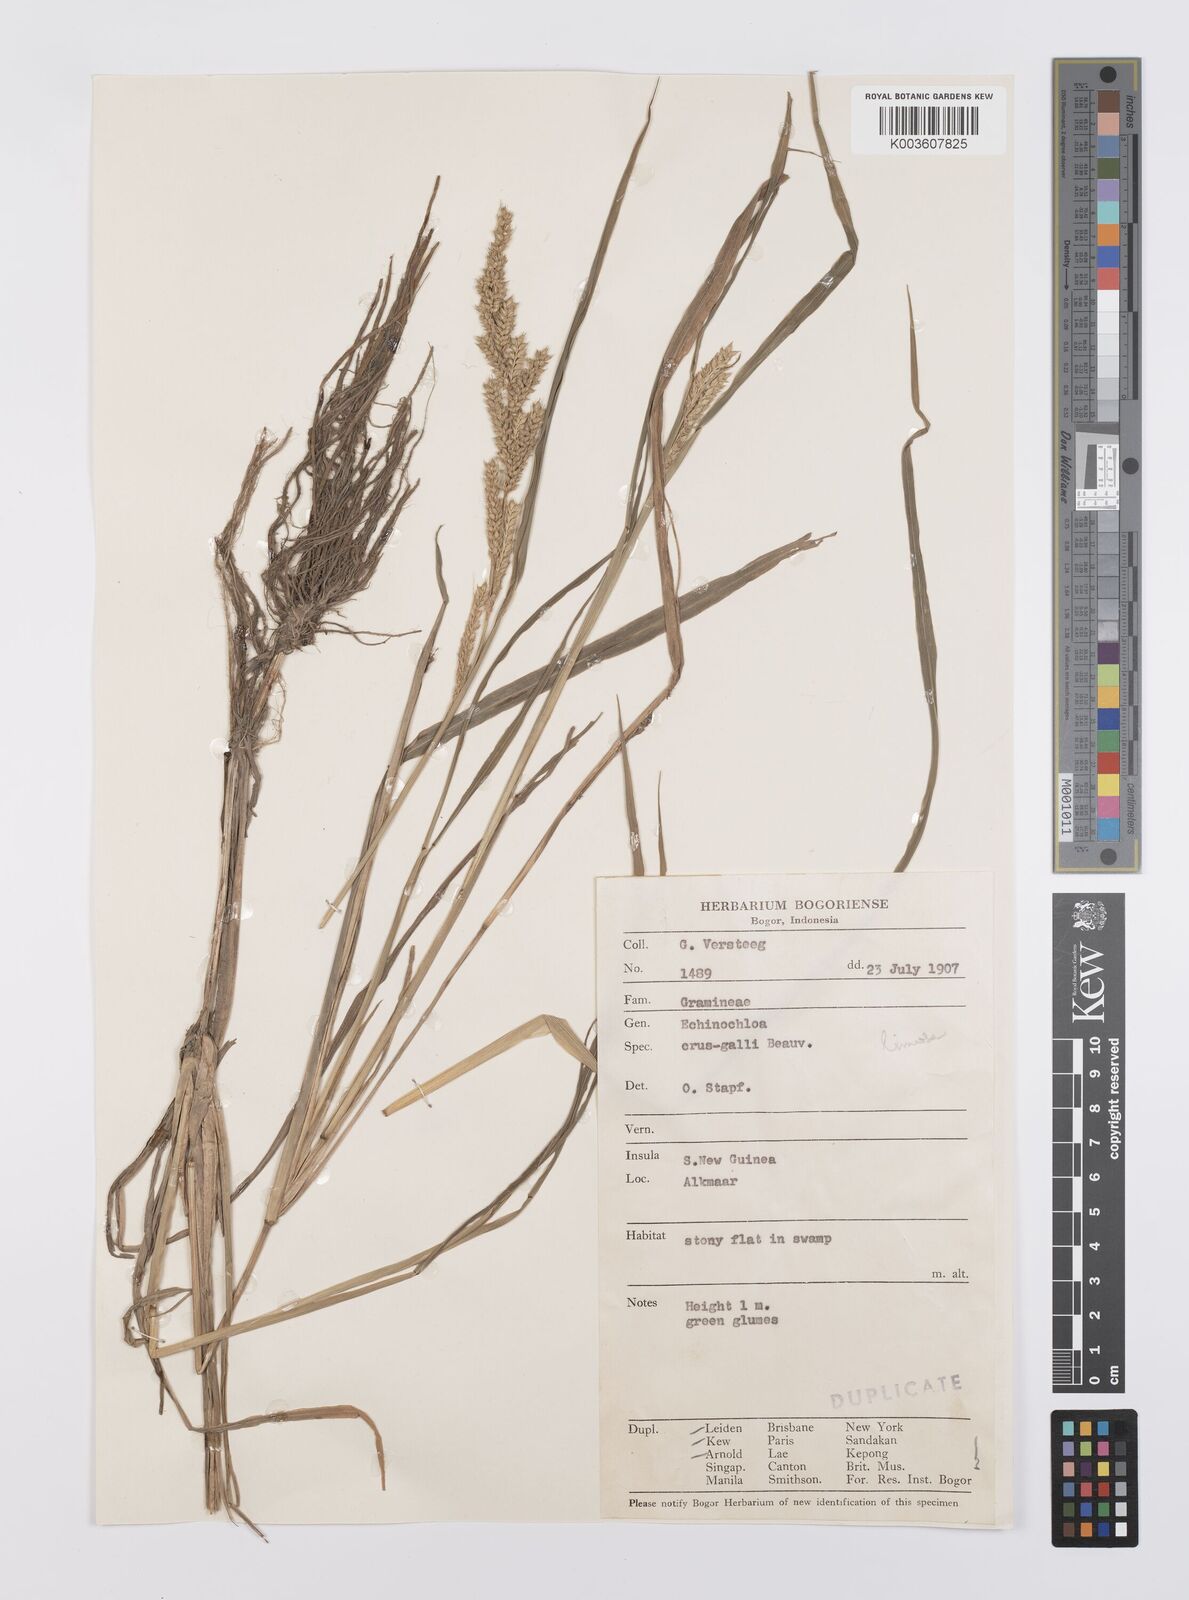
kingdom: Plantae
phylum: Tracheophyta
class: Liliopsida
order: Poales
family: Poaceae
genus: Echinochloa
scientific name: Echinochloa crus-galli
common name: Cockspur
